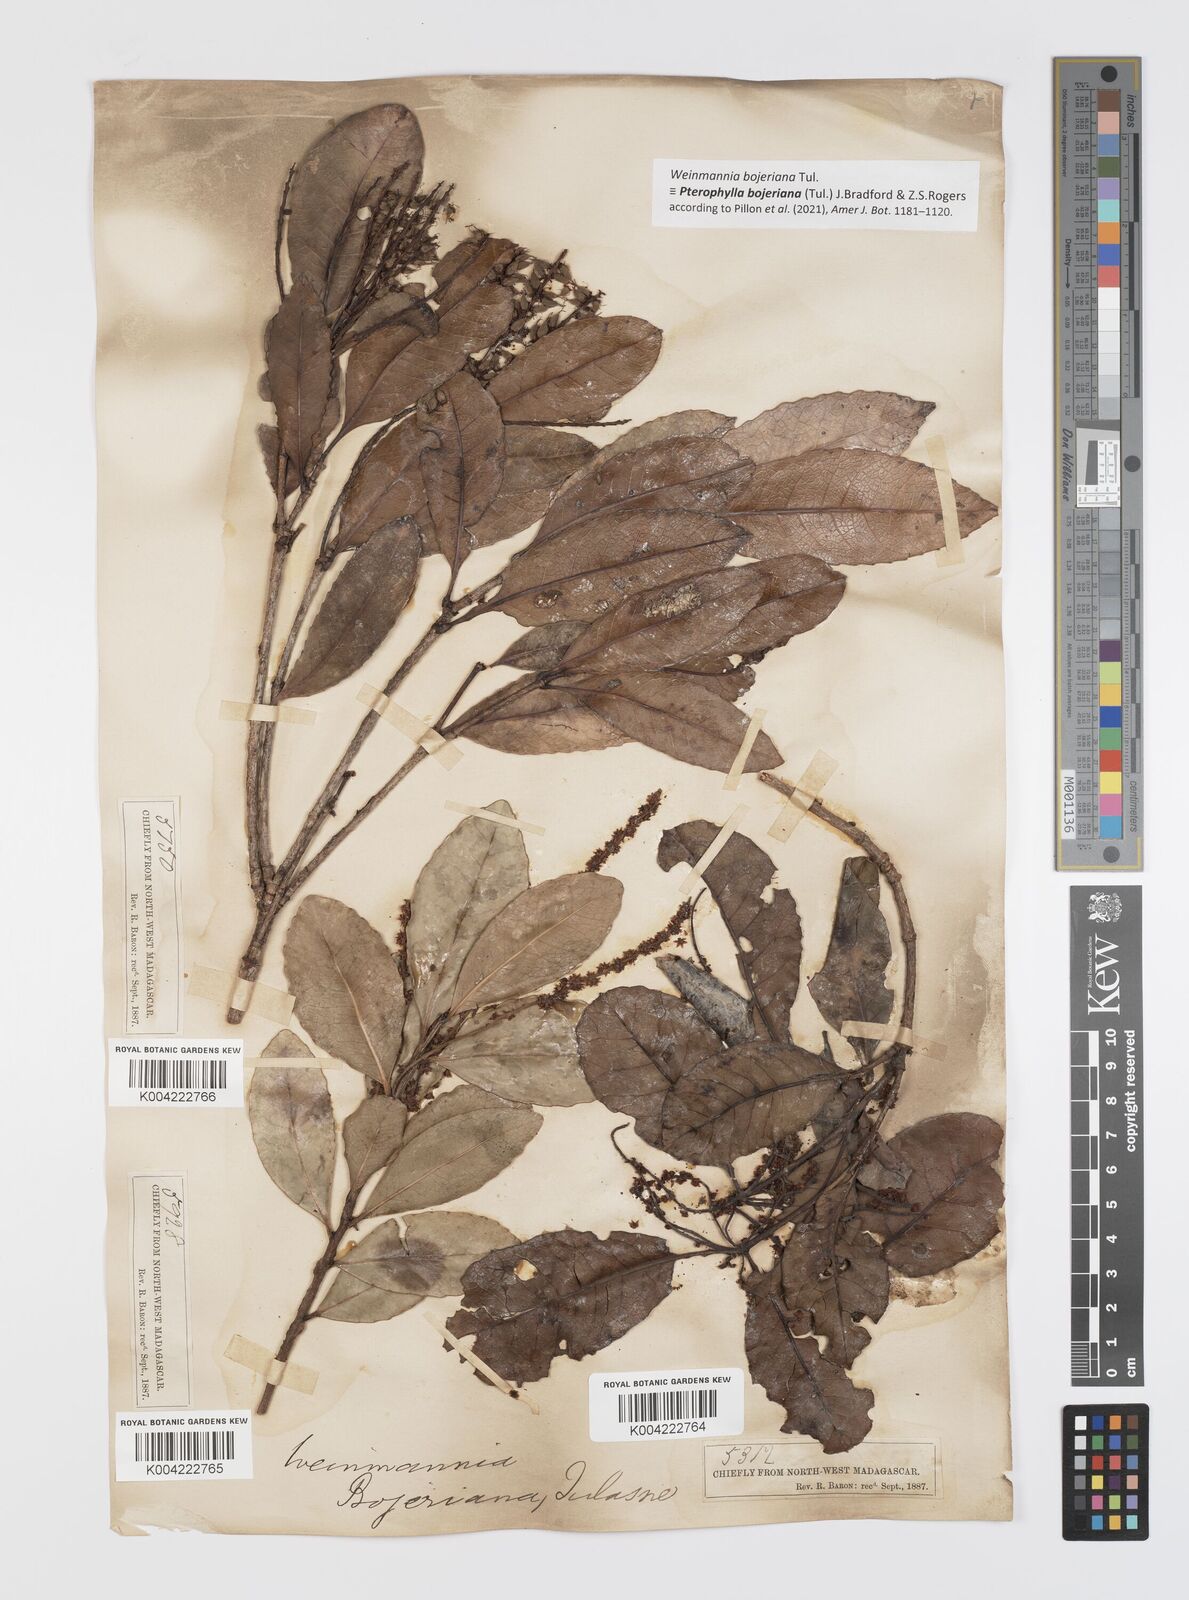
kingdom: Plantae
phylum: Tracheophyta
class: Magnoliopsida
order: Oxalidales
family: Cunoniaceae
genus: Pterophylla
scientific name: Pterophylla
